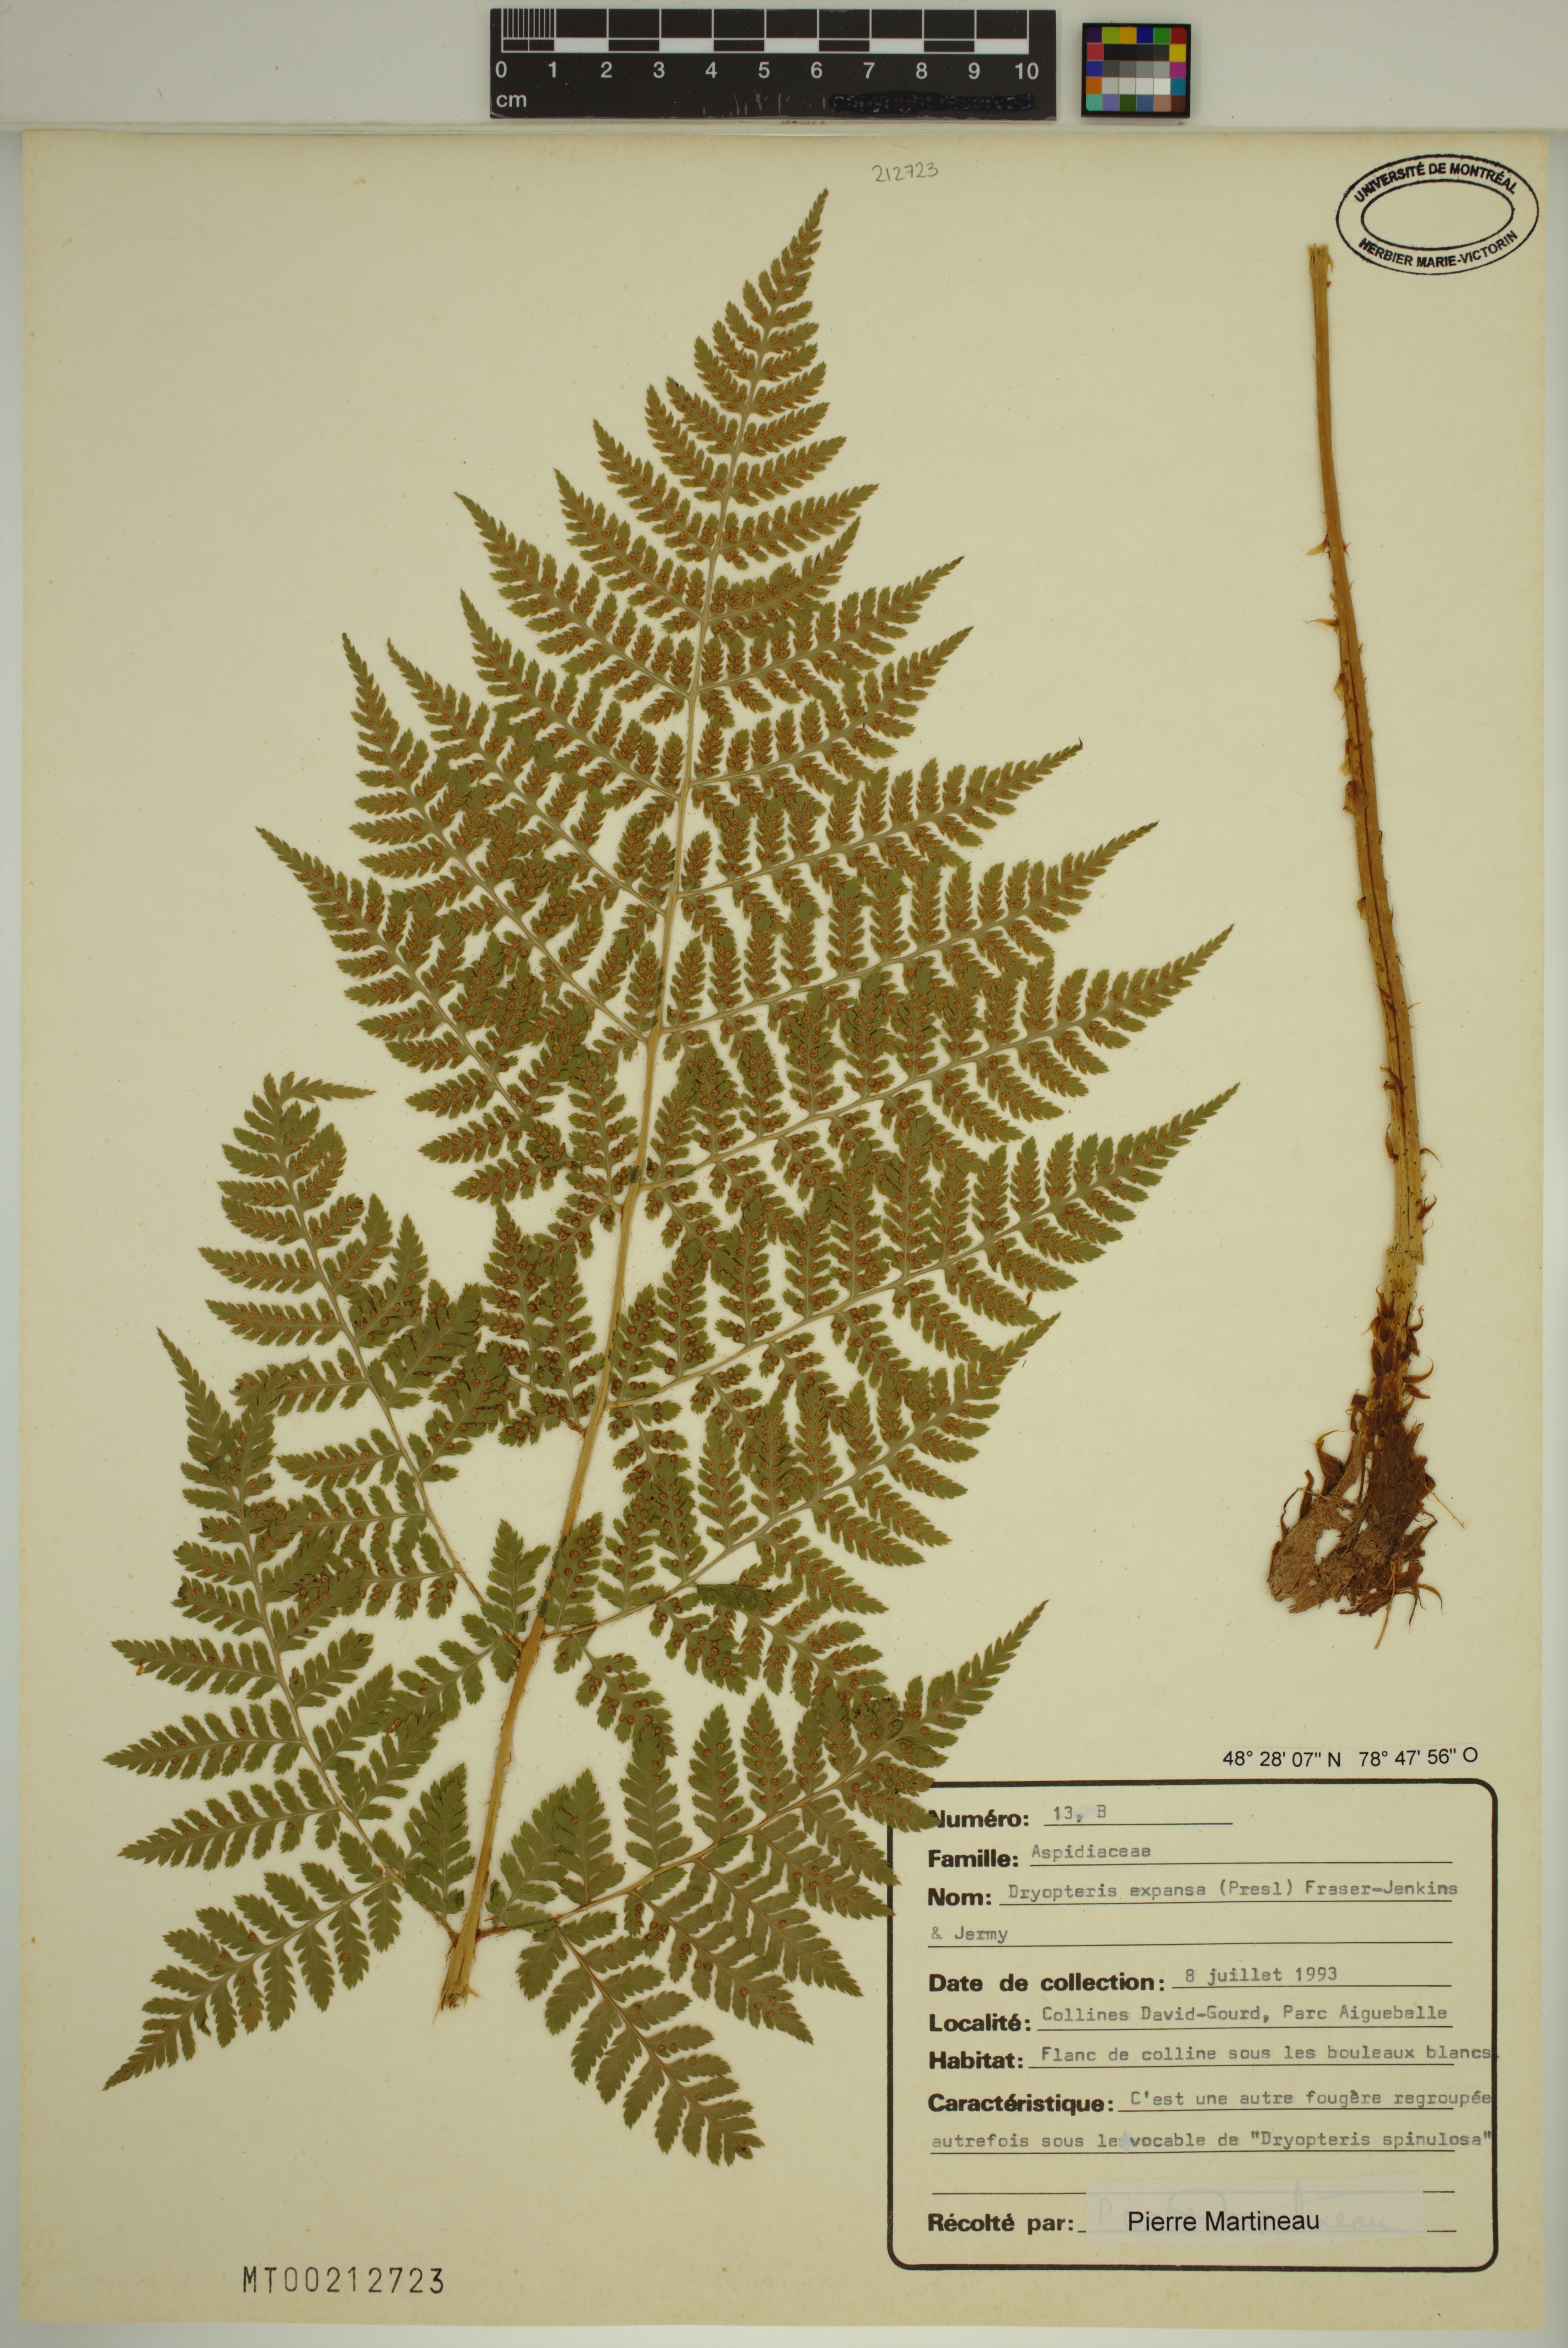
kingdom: Plantae
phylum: Tracheophyta
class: Polypodiopsida
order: Polypodiales
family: Dryopteridaceae
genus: Dryopteris
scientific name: Dryopteris expansa
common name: Northern buckler fern
